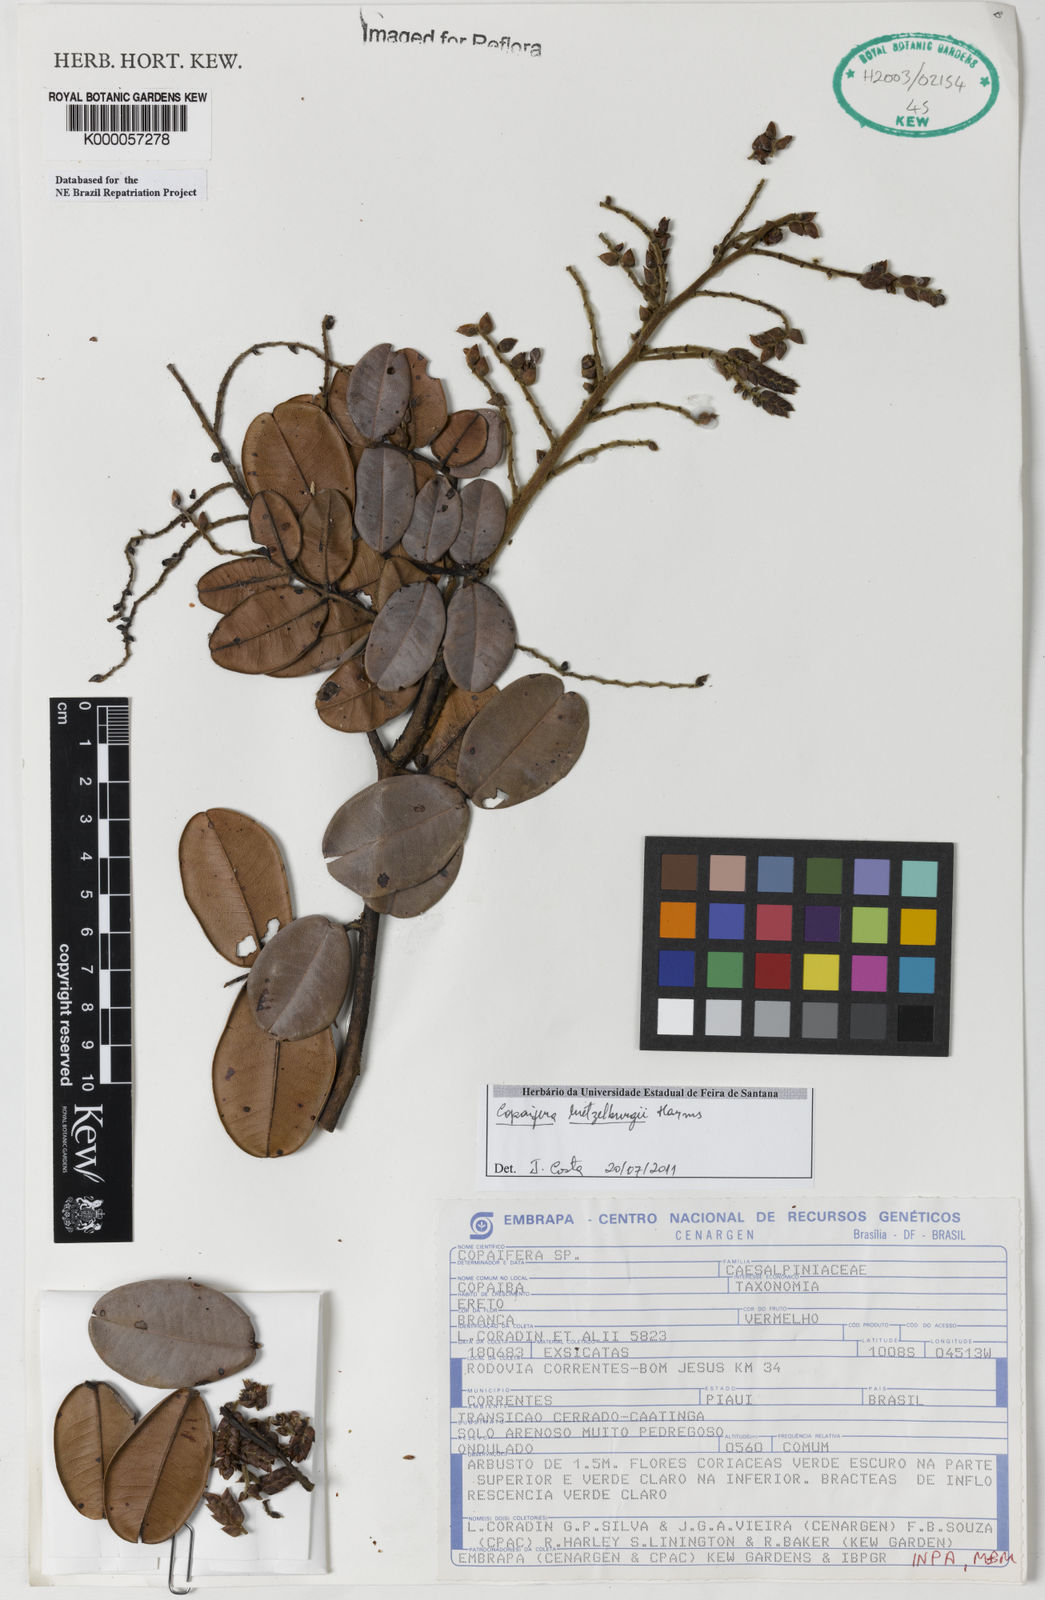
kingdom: Plantae
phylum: Tracheophyta
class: Magnoliopsida
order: Fabales
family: Fabaceae
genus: Copaifera
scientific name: Copaifera martii
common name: Copaiba
